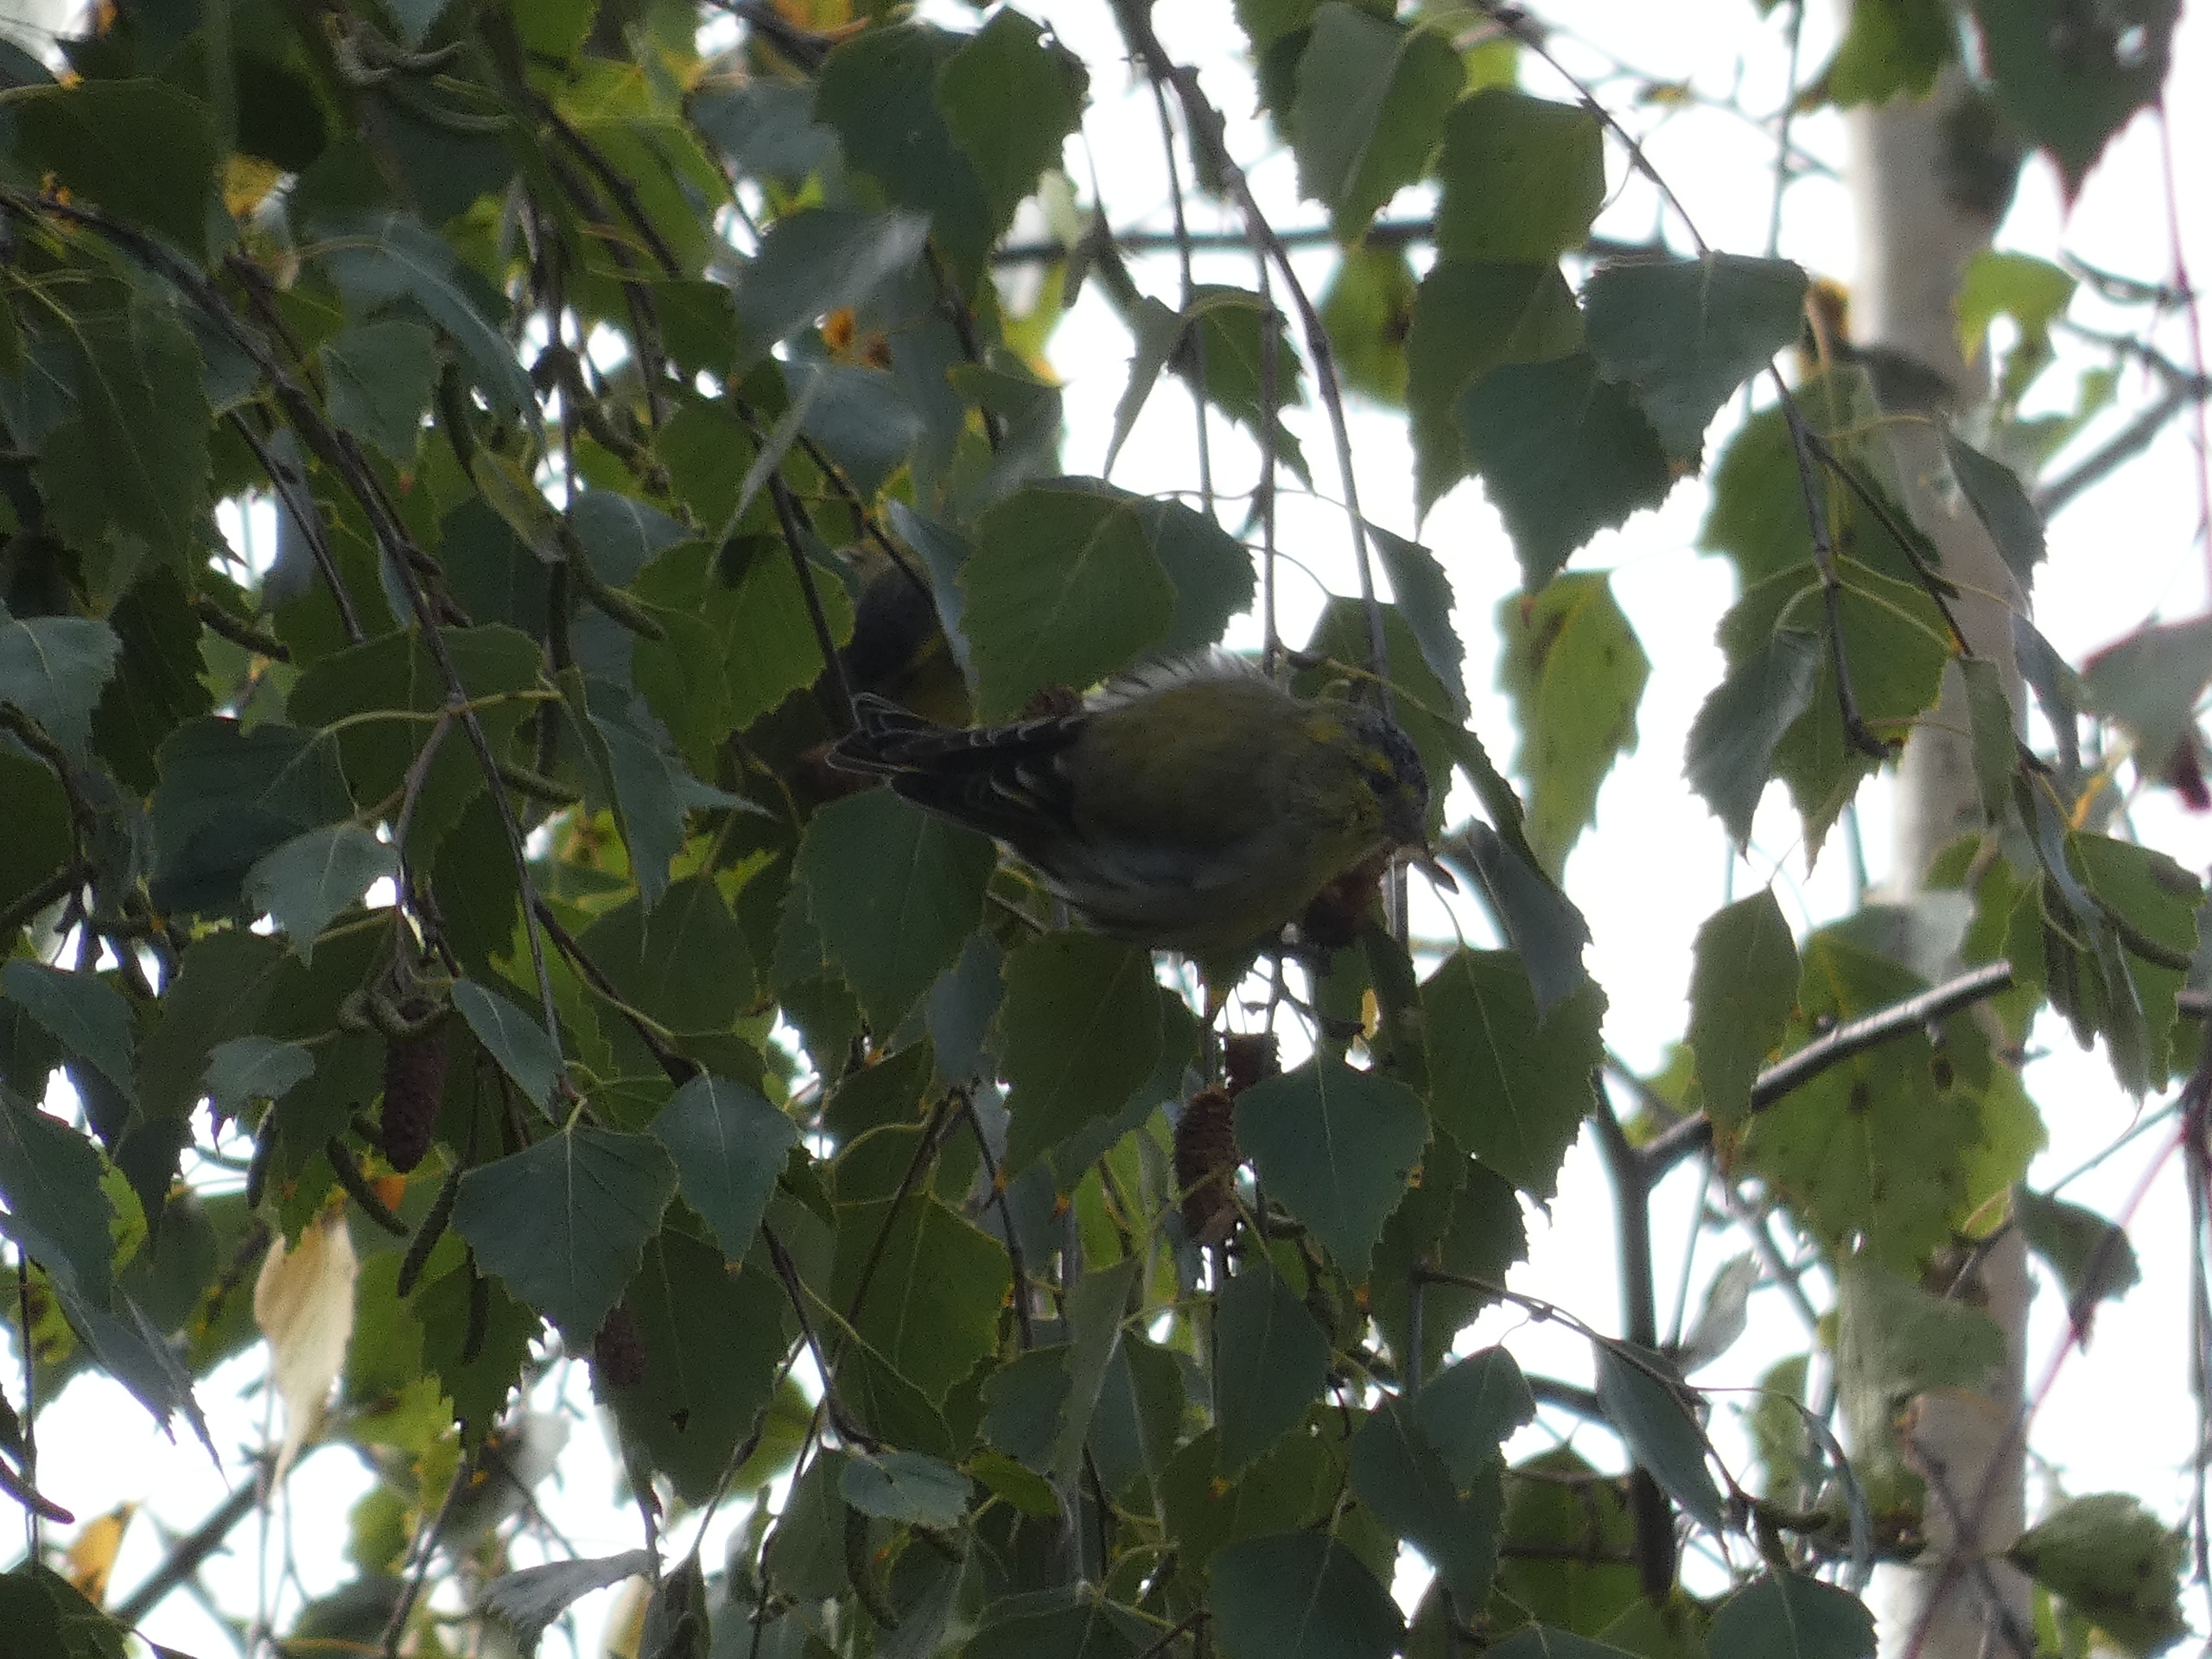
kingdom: Animalia
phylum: Chordata
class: Aves
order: Passeriformes
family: Fringillidae
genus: Spinus
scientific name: Spinus spinus
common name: Grønsisken
